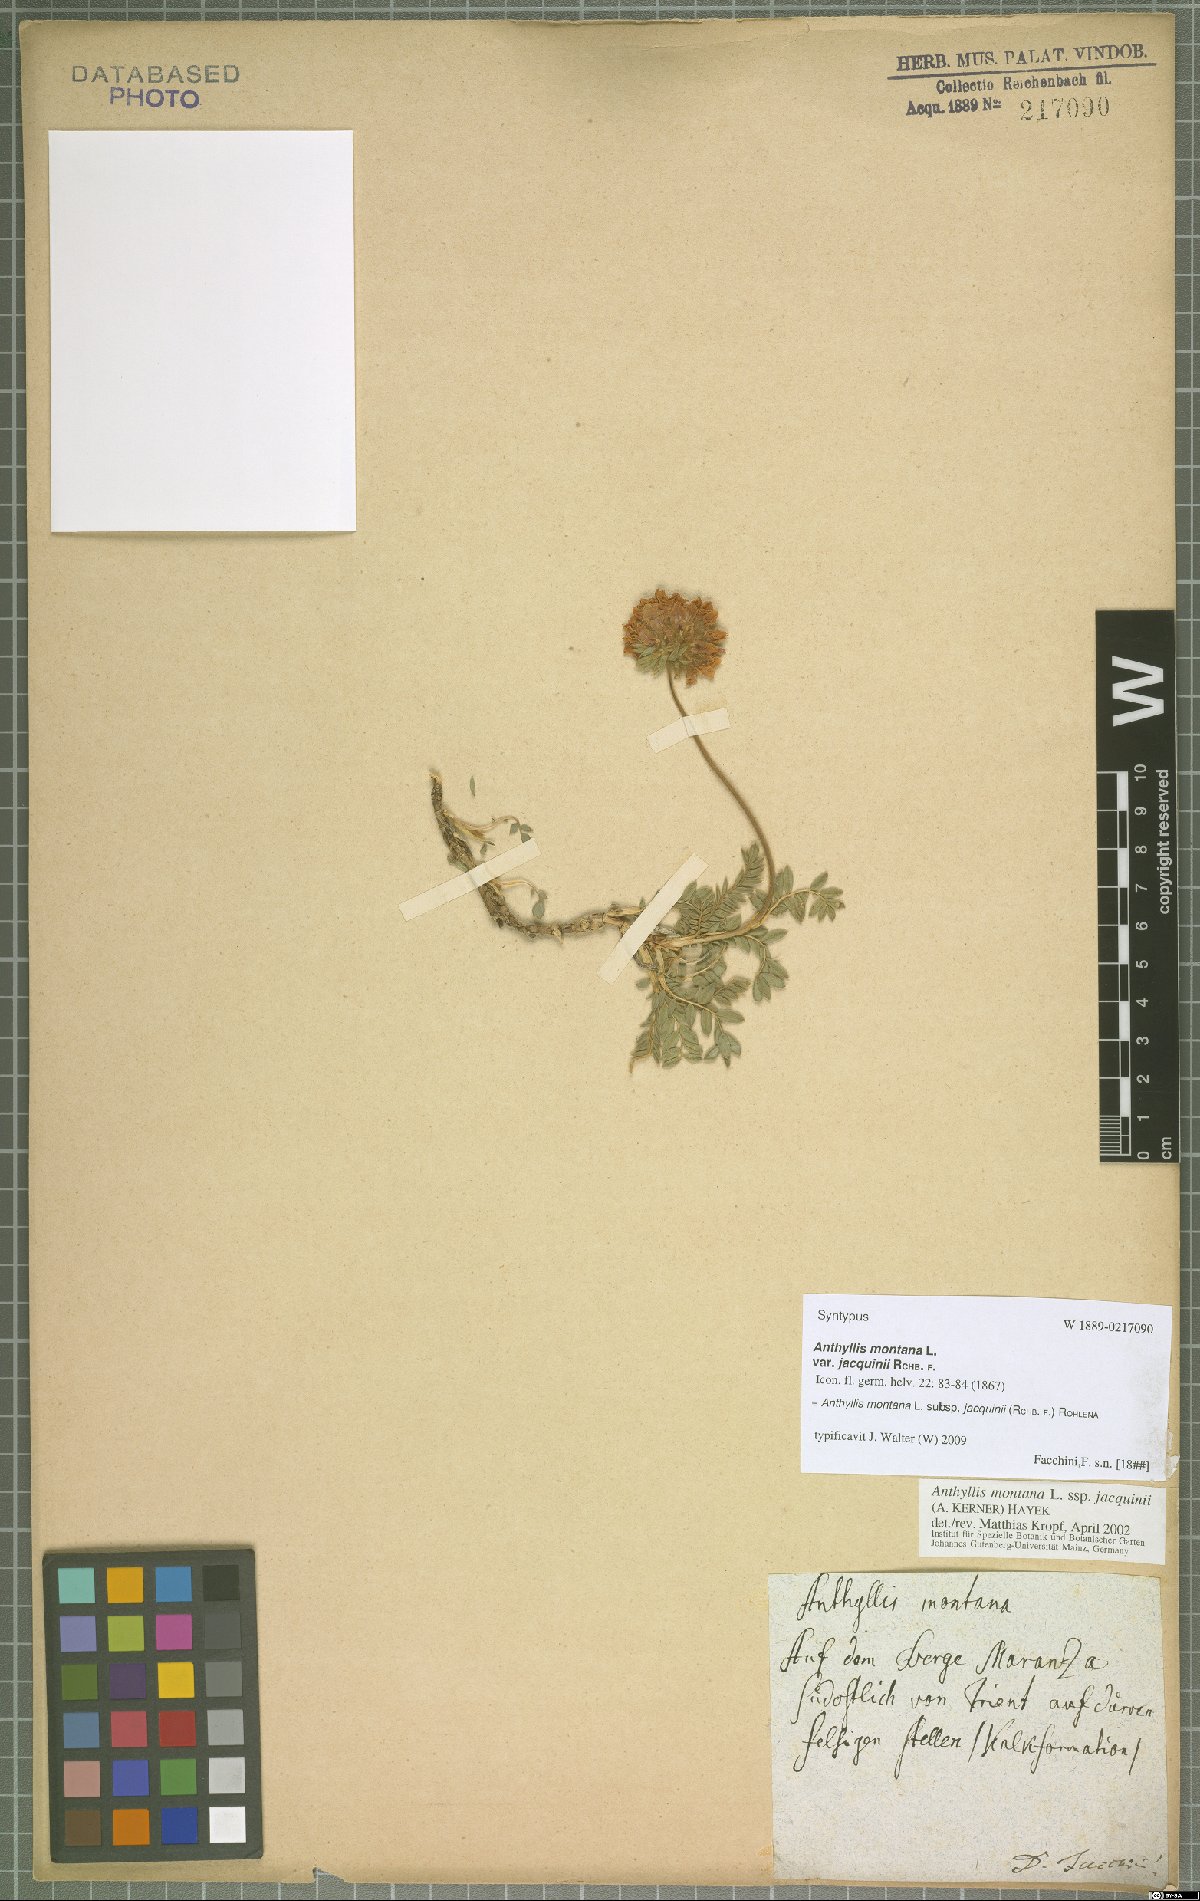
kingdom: Plantae
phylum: Tracheophyta
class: Magnoliopsida
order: Fabales
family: Fabaceae
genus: Anthyllis
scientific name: Anthyllis montana
